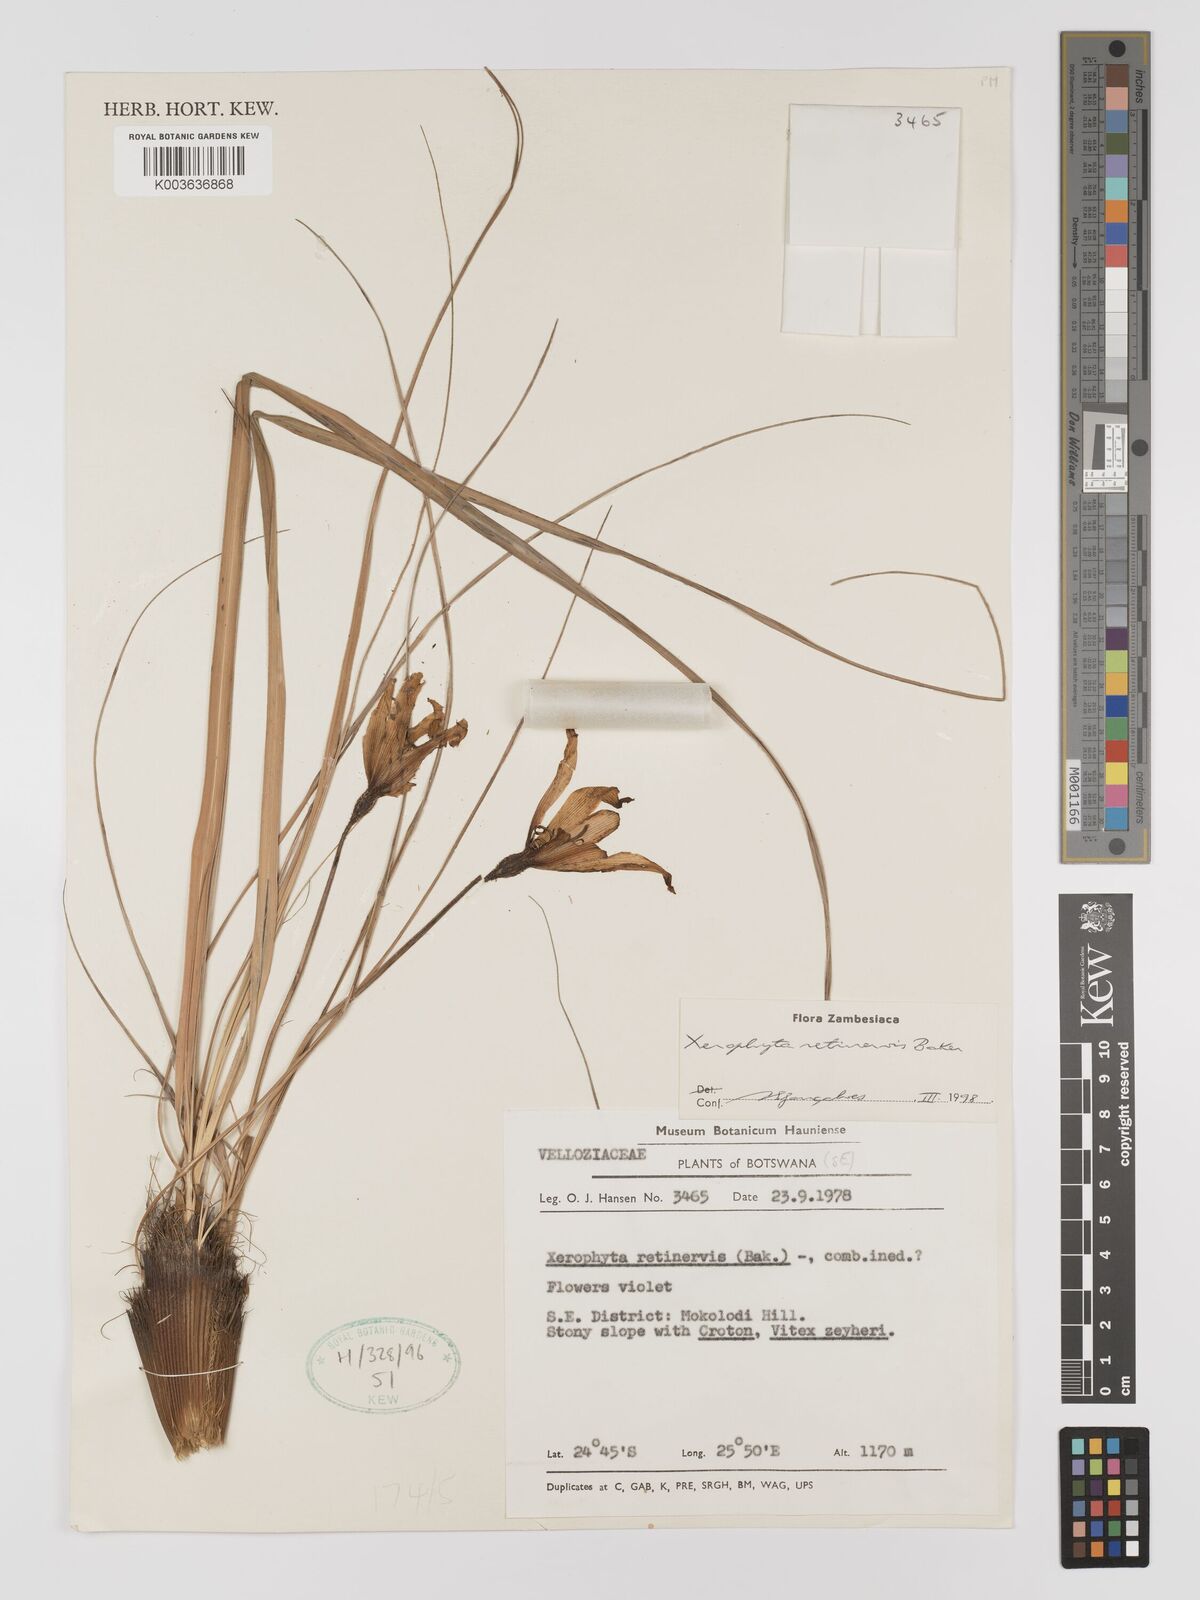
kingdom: Plantae
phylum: Tracheophyta
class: Liliopsida
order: Pandanales
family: Velloziaceae
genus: Xerophyta
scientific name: Xerophyta retinervis
